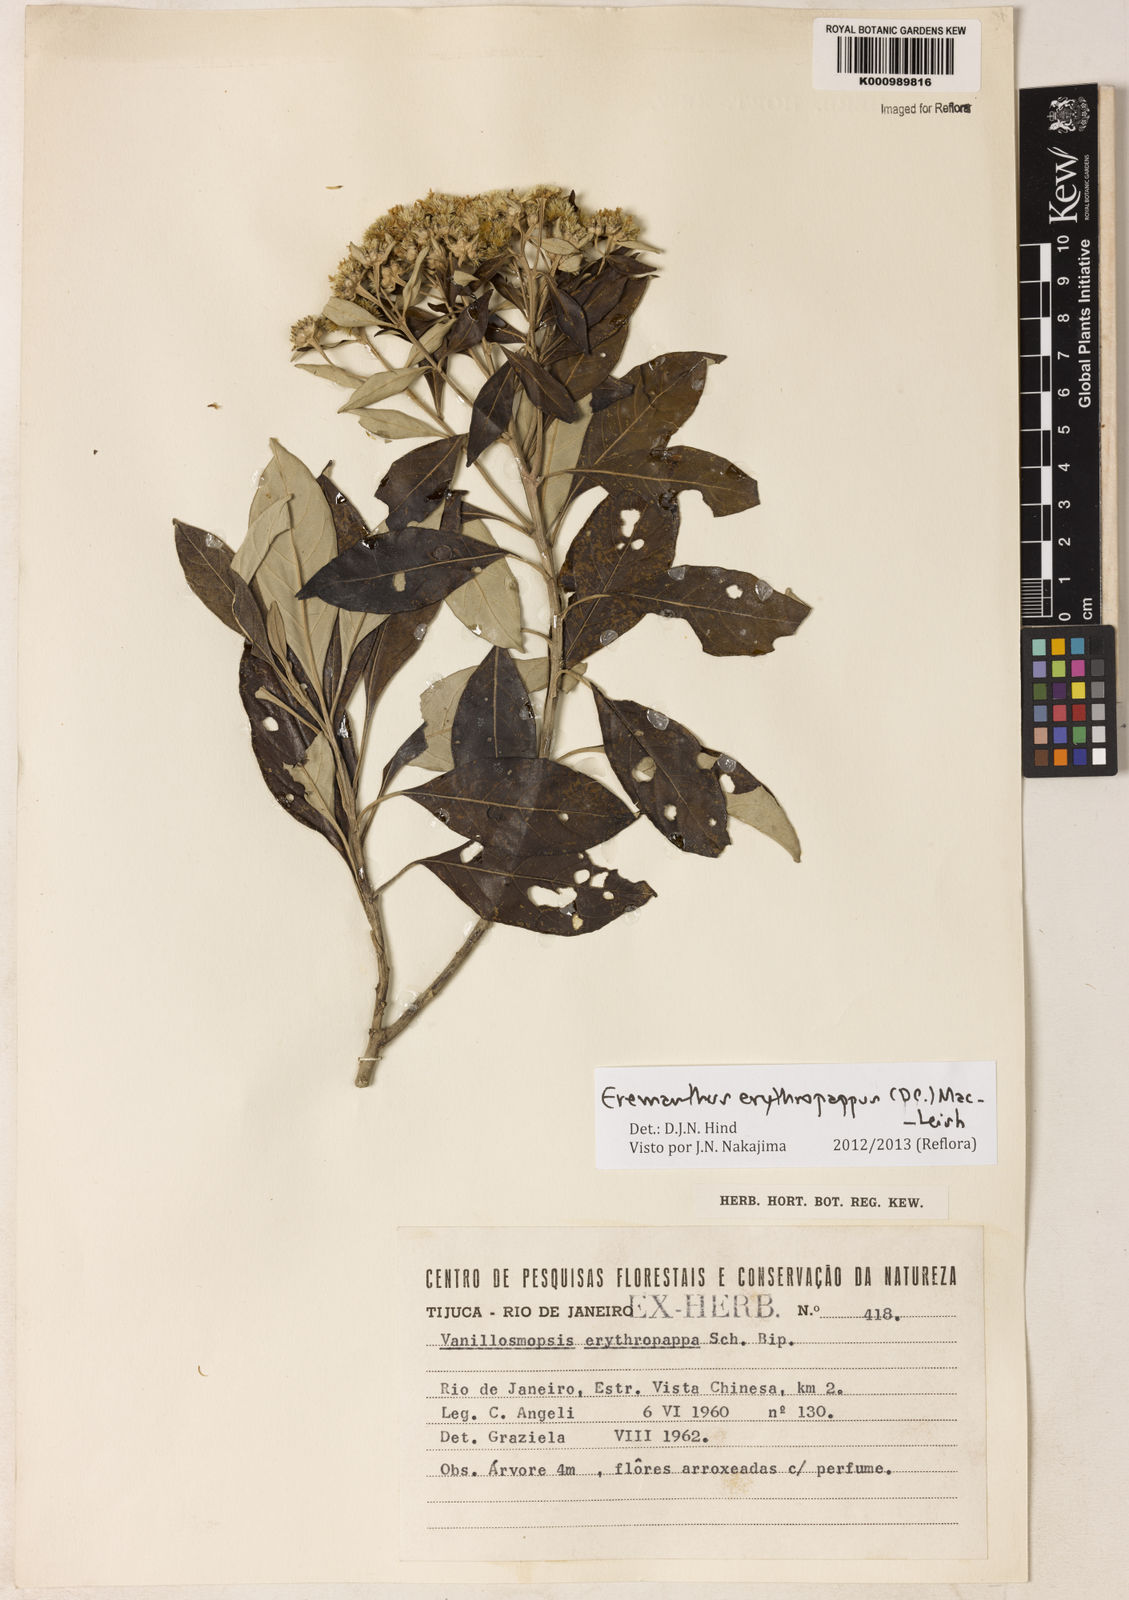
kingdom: Plantae
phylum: Tracheophyta
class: Magnoliopsida
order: Asterales
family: Asteraceae
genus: Eremanthus
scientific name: Eremanthus erythropappus
